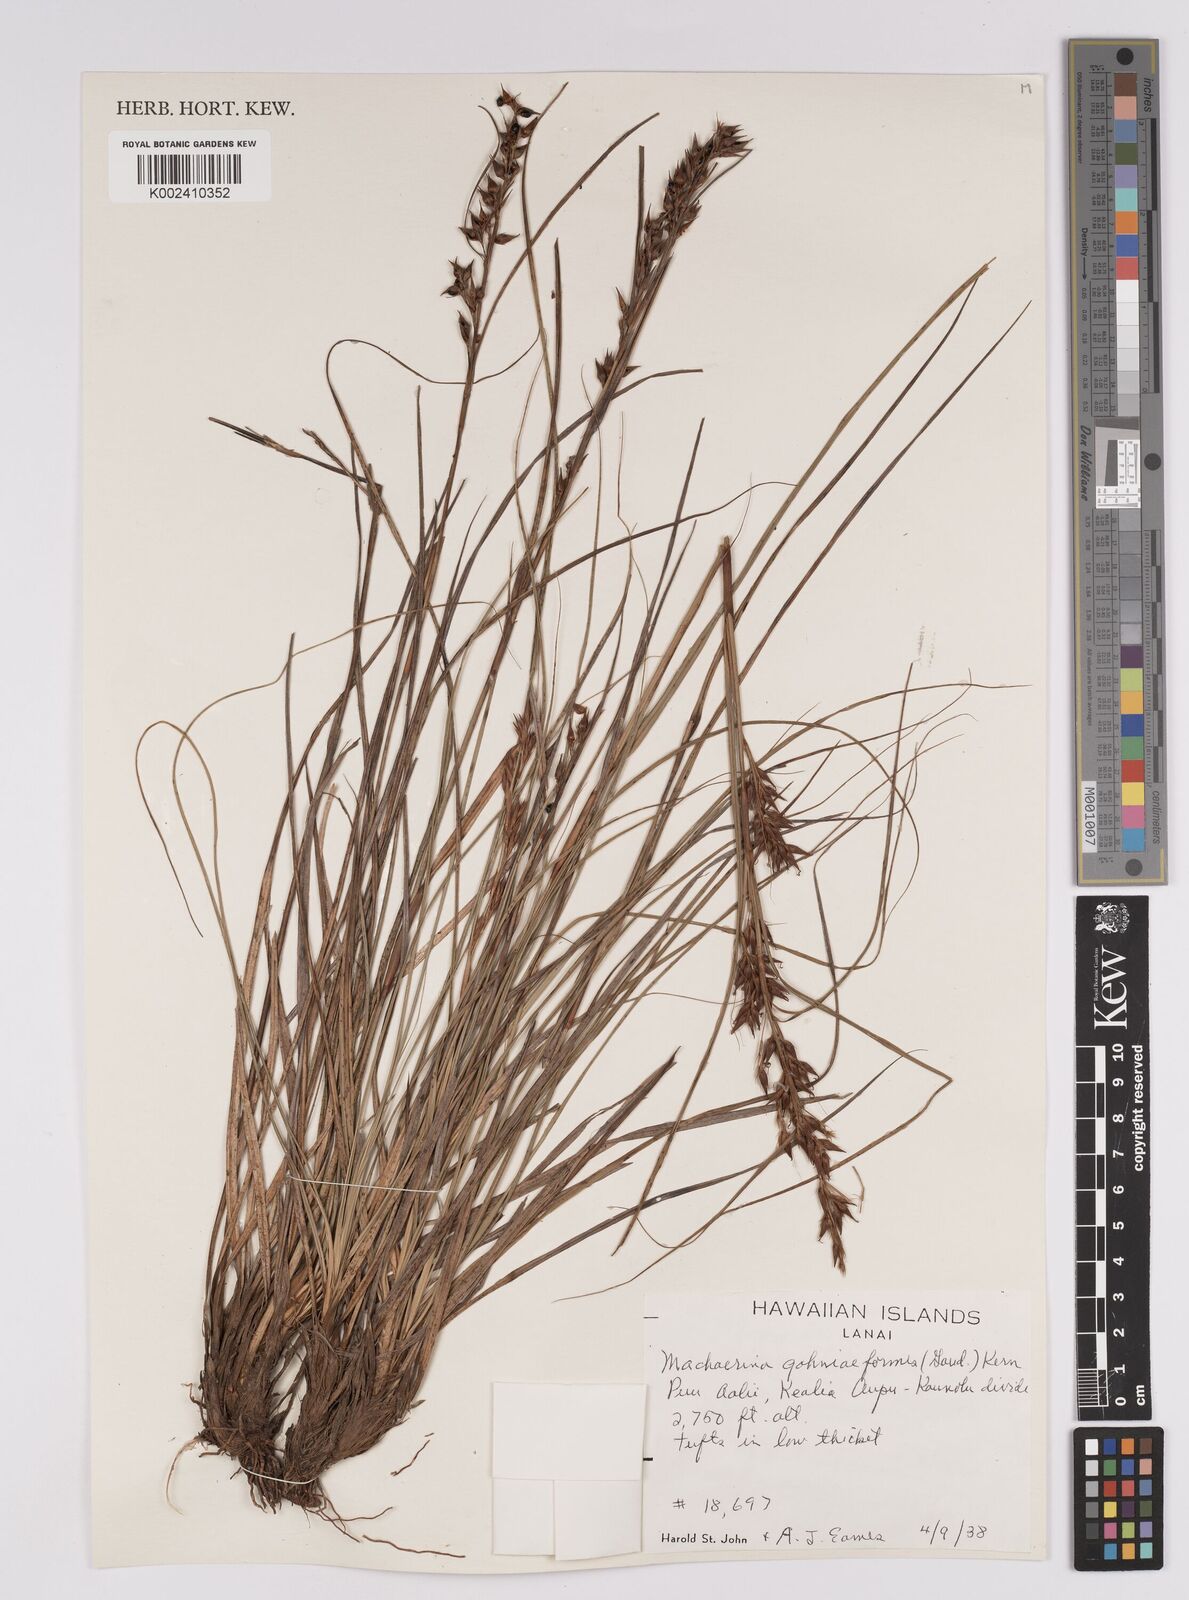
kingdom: Plantae
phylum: Tracheophyta
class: Liliopsida
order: Poales
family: Cyperaceae
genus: Morelotia
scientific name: Morelotia gahniiformis
